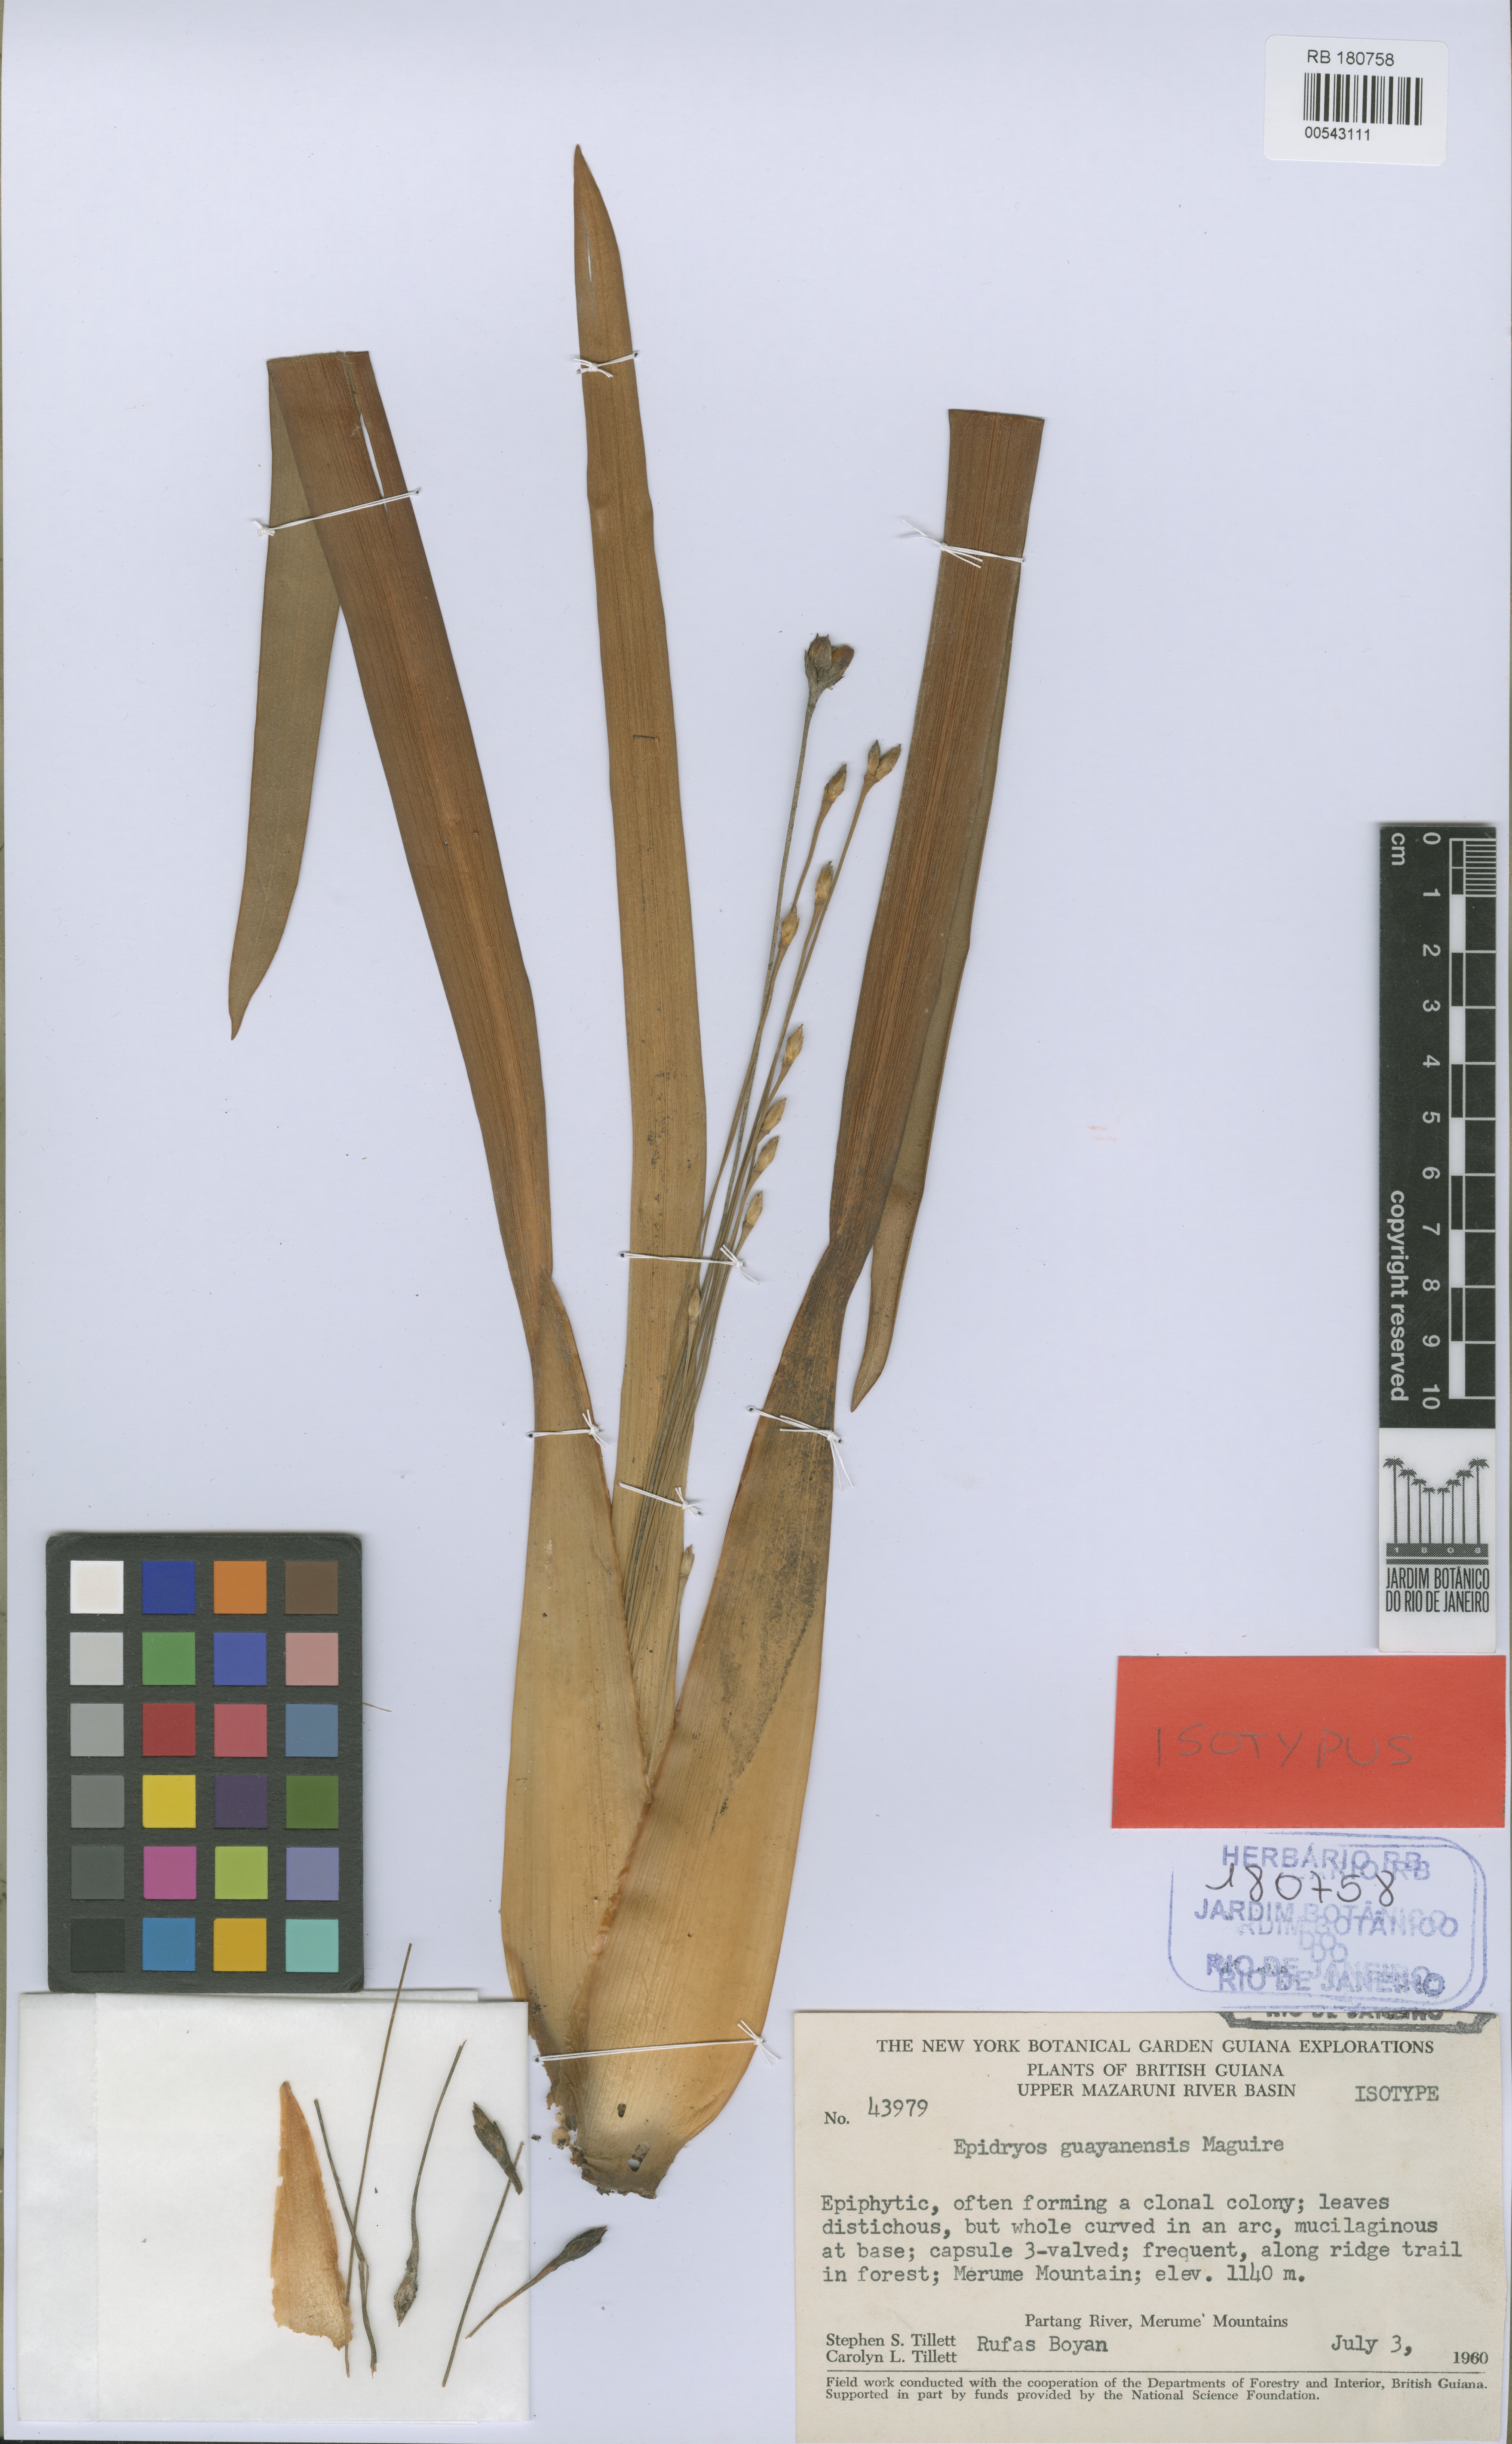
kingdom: Plantae
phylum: Tracheophyta
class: Liliopsida
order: Poales
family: Rapateaceae
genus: Epidryos
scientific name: Epidryos guayanensis
